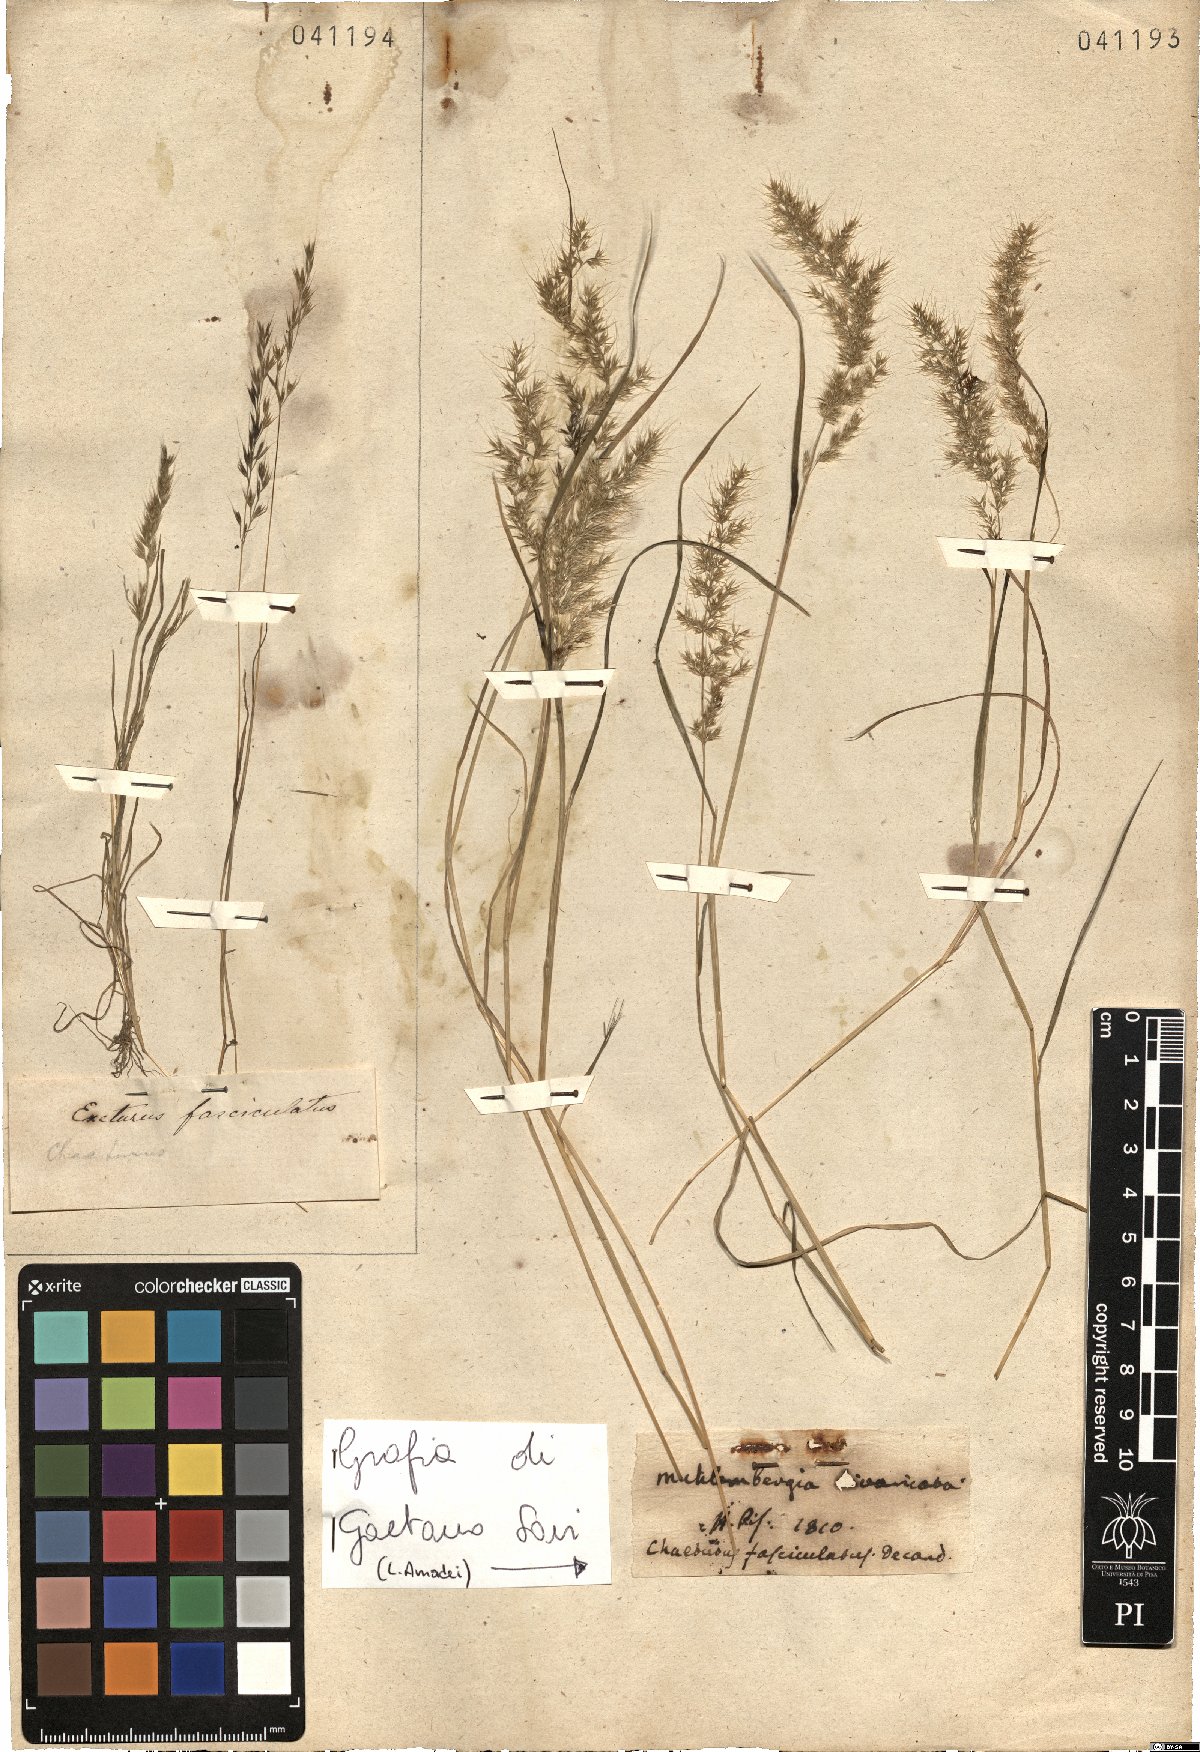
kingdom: Plantae
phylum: Tracheophyta
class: Liliopsida
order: Poales
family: Poaceae
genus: Agrostis
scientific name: Agrostis subspicata
